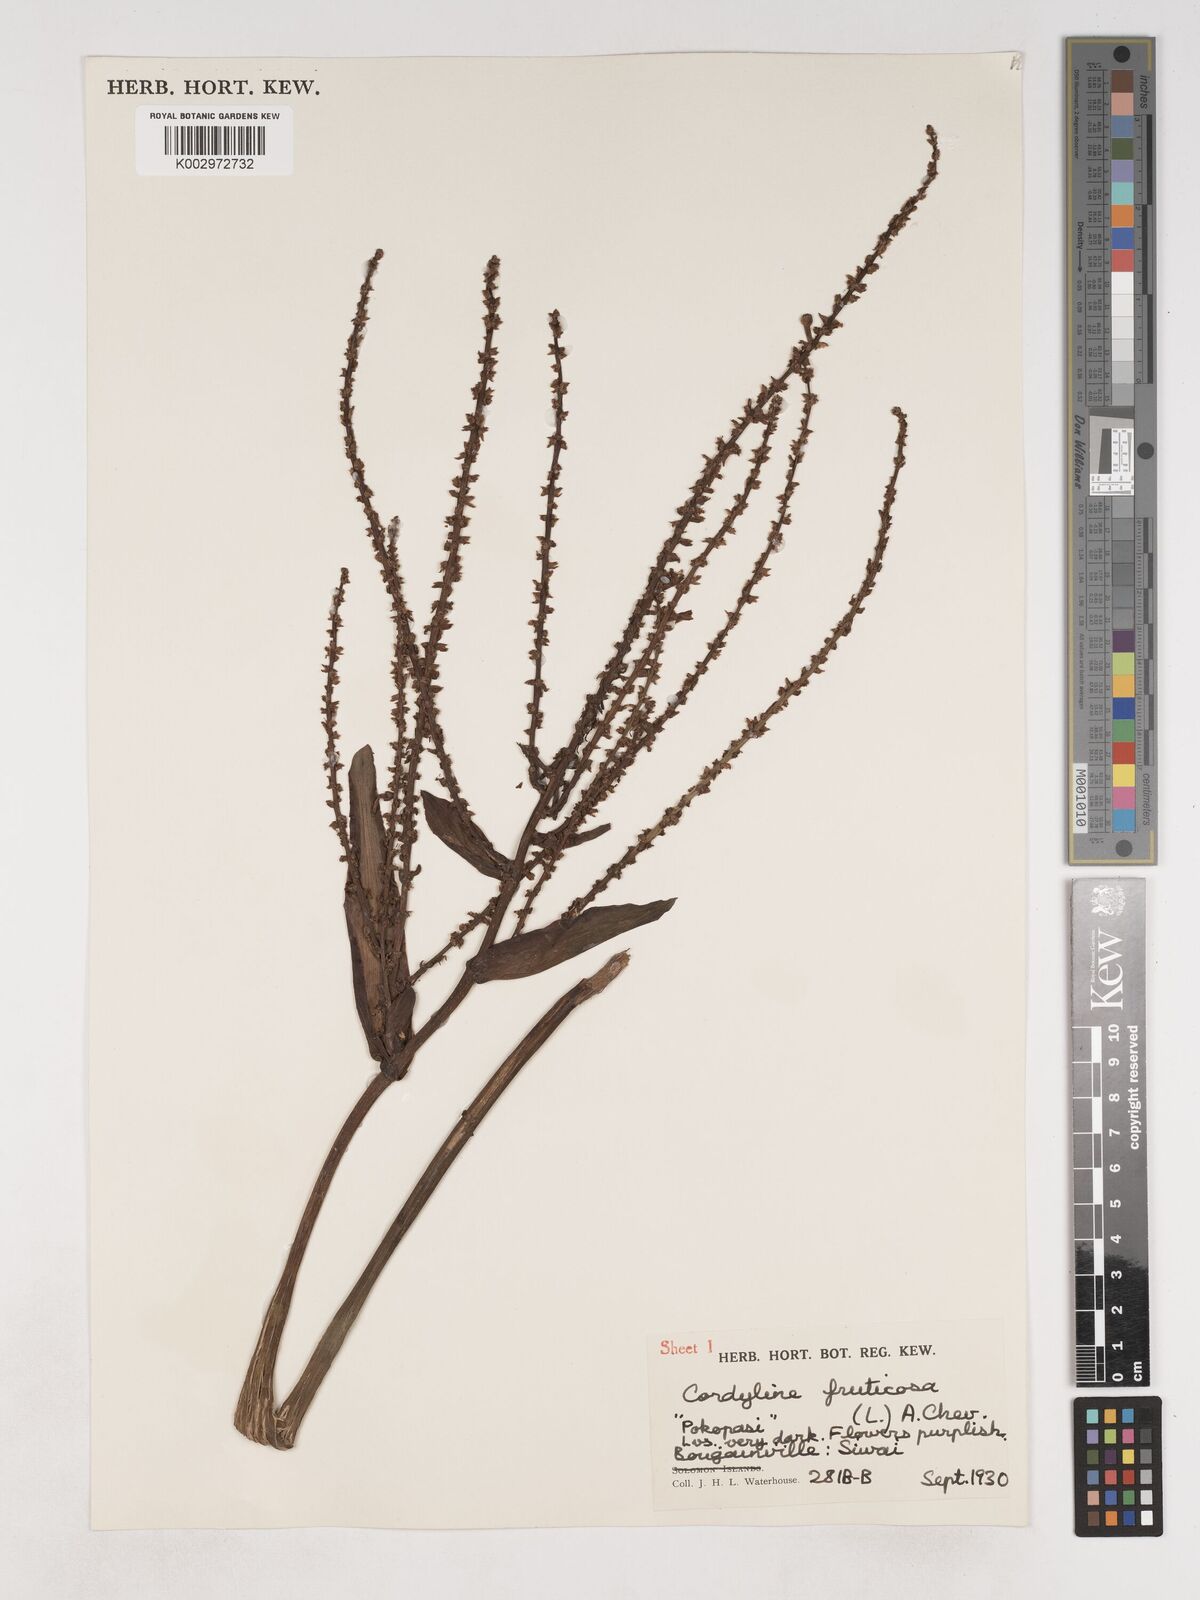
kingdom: Plantae
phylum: Tracheophyta
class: Liliopsida
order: Asparagales
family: Asparagaceae
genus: Cordyline
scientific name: Cordyline fruticosa
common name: Good-luck-plant
